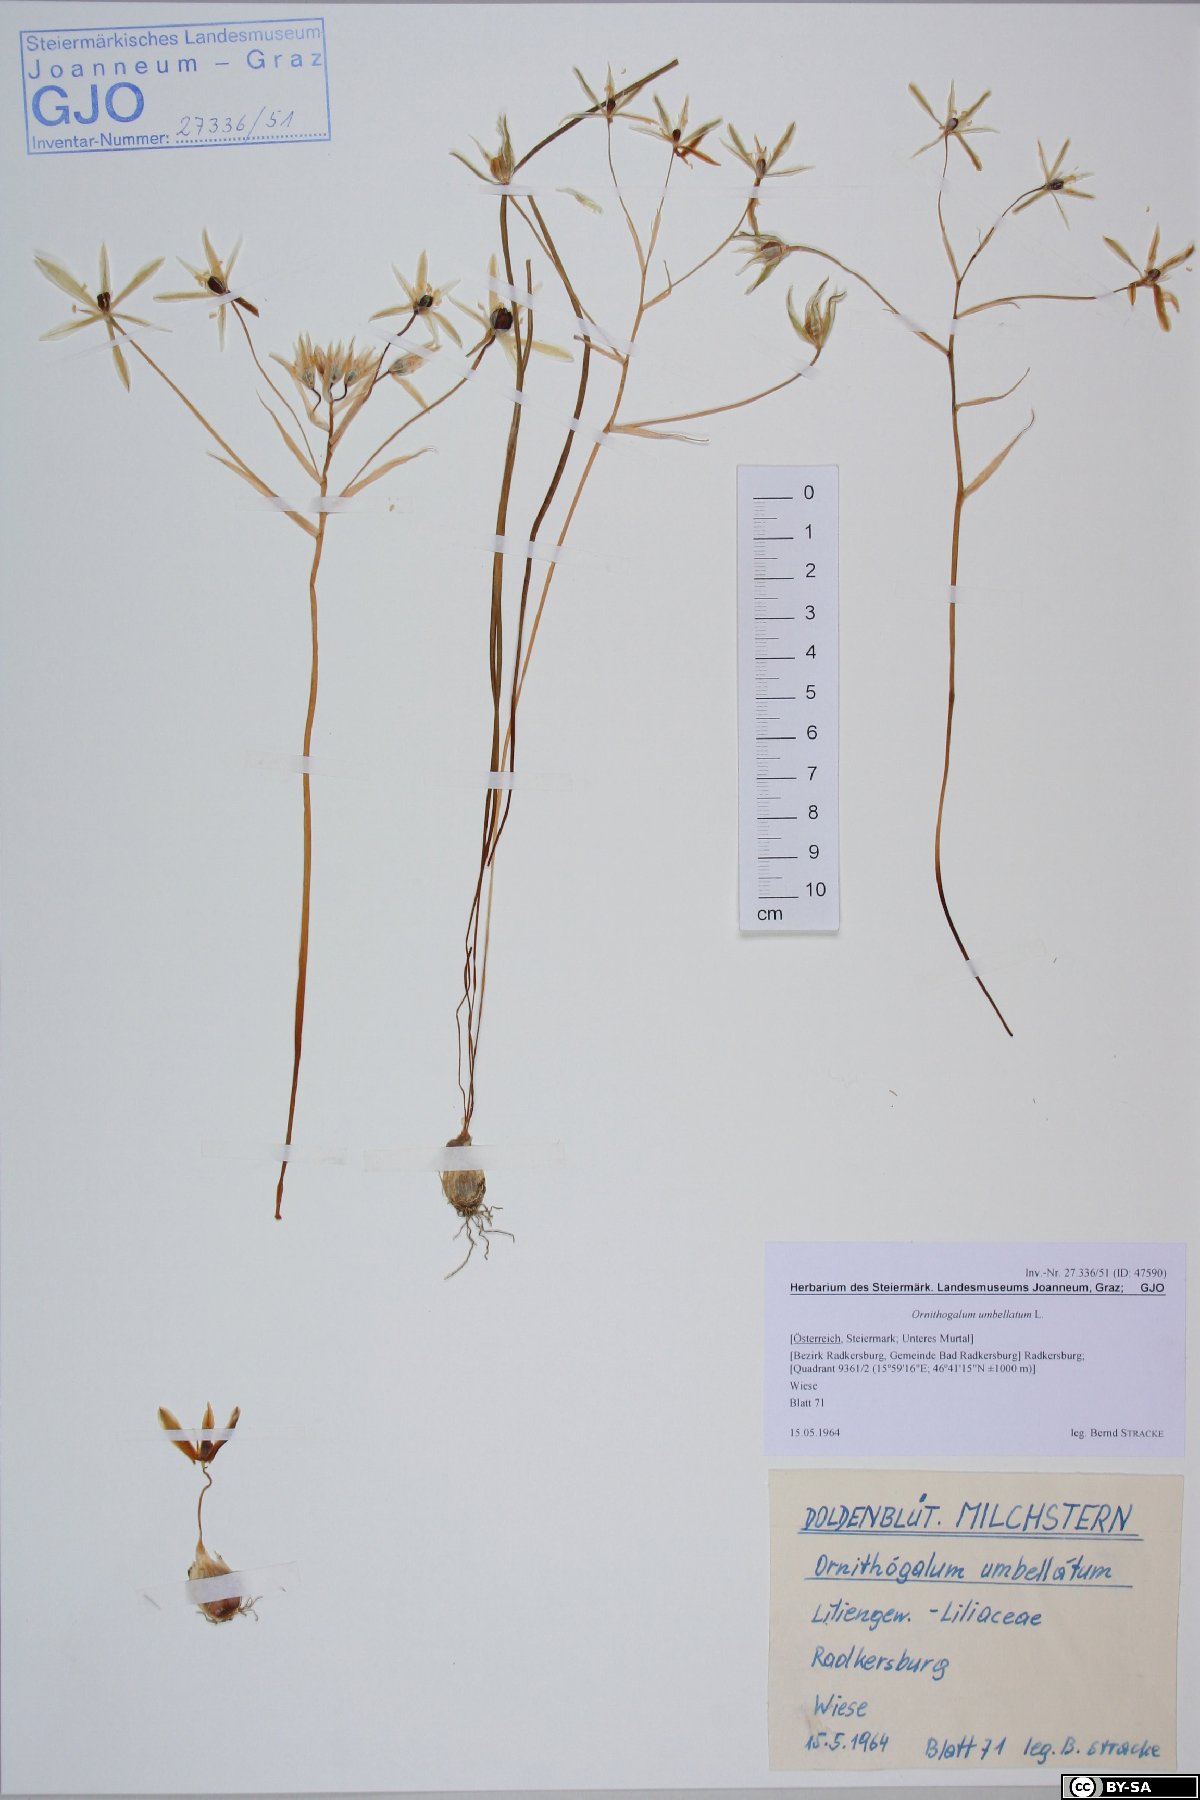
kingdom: Plantae
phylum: Tracheophyta
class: Liliopsida
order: Asparagales
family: Asparagaceae
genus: Ornithogalum
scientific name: Ornithogalum umbellatum
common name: Garden star-of-bethlehem
